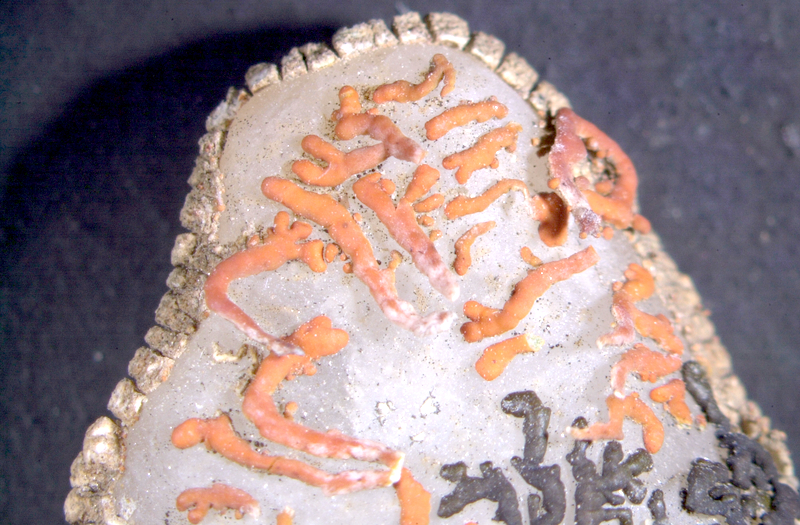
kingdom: Fungi
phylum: Ascomycota
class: Lecanoromycetes
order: Teloschistales
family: Teloschistaceae
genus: Stellarangia
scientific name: Stellarangia elegantissima
